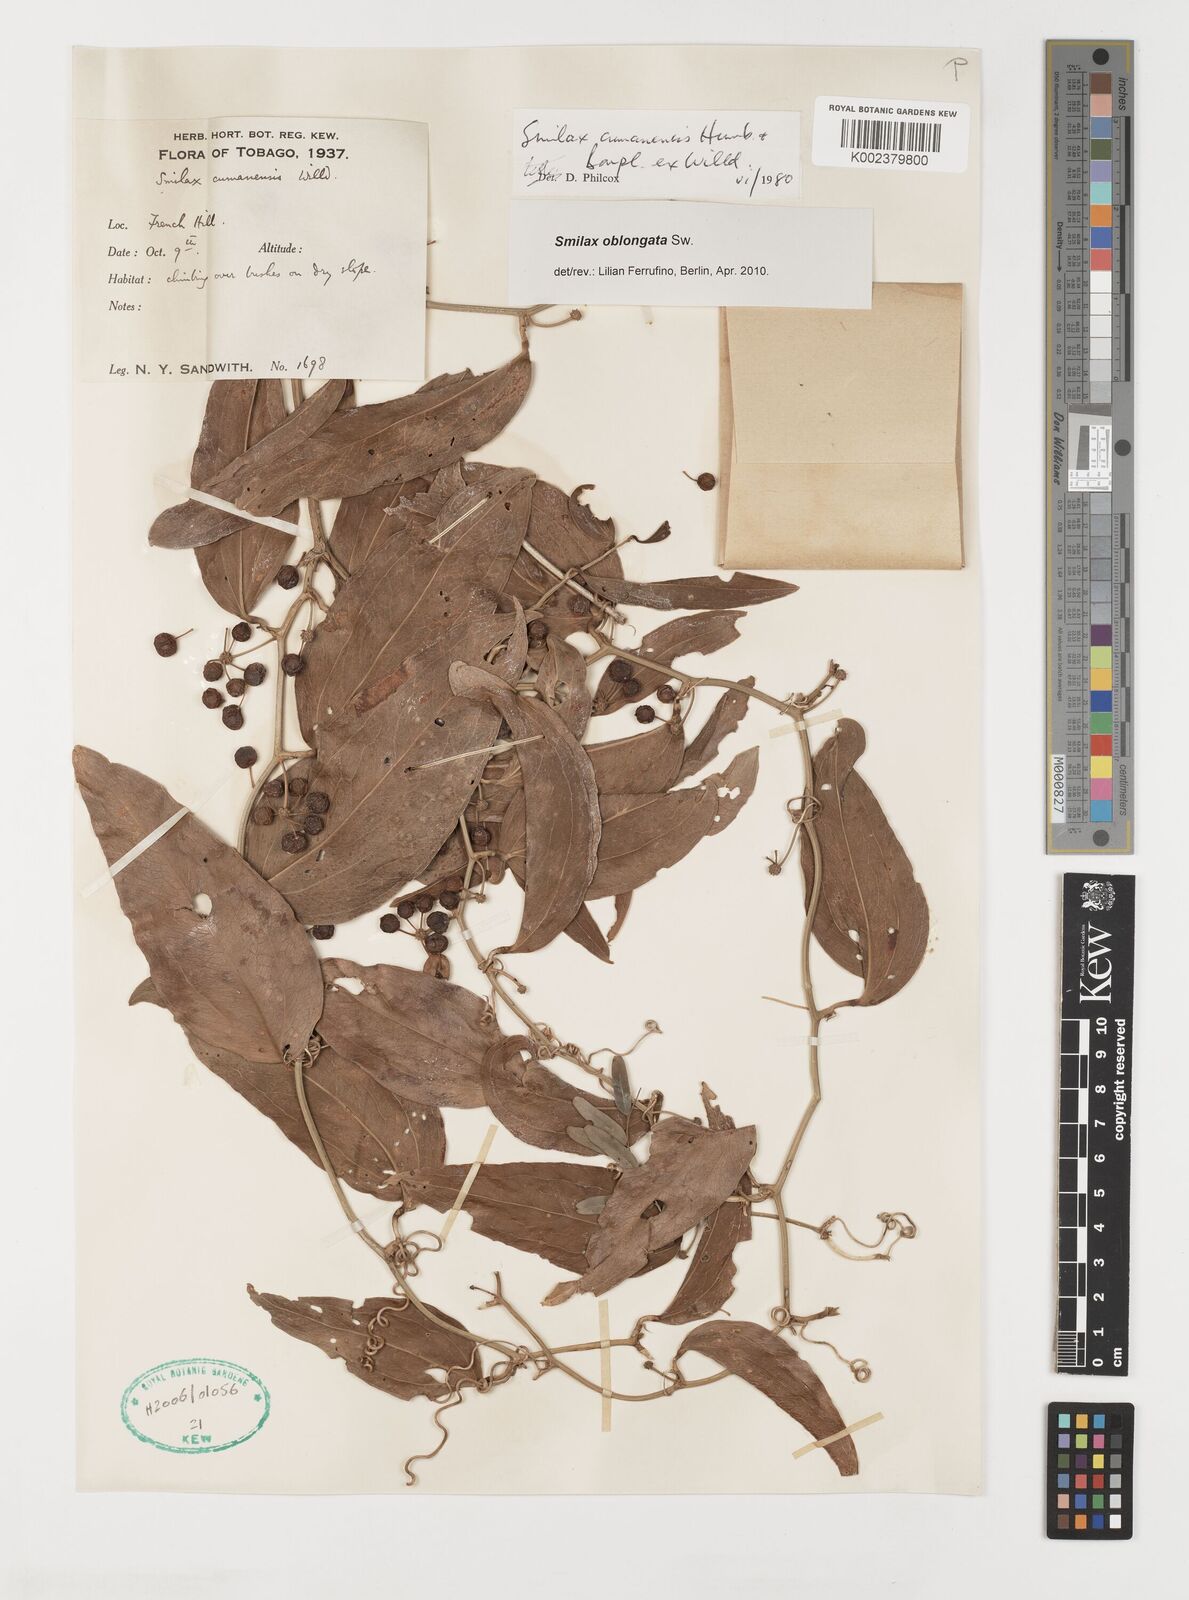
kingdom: Plantae
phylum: Tracheophyta
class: Liliopsida
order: Liliales
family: Smilacaceae
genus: Smilax
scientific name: Smilax oblongata
